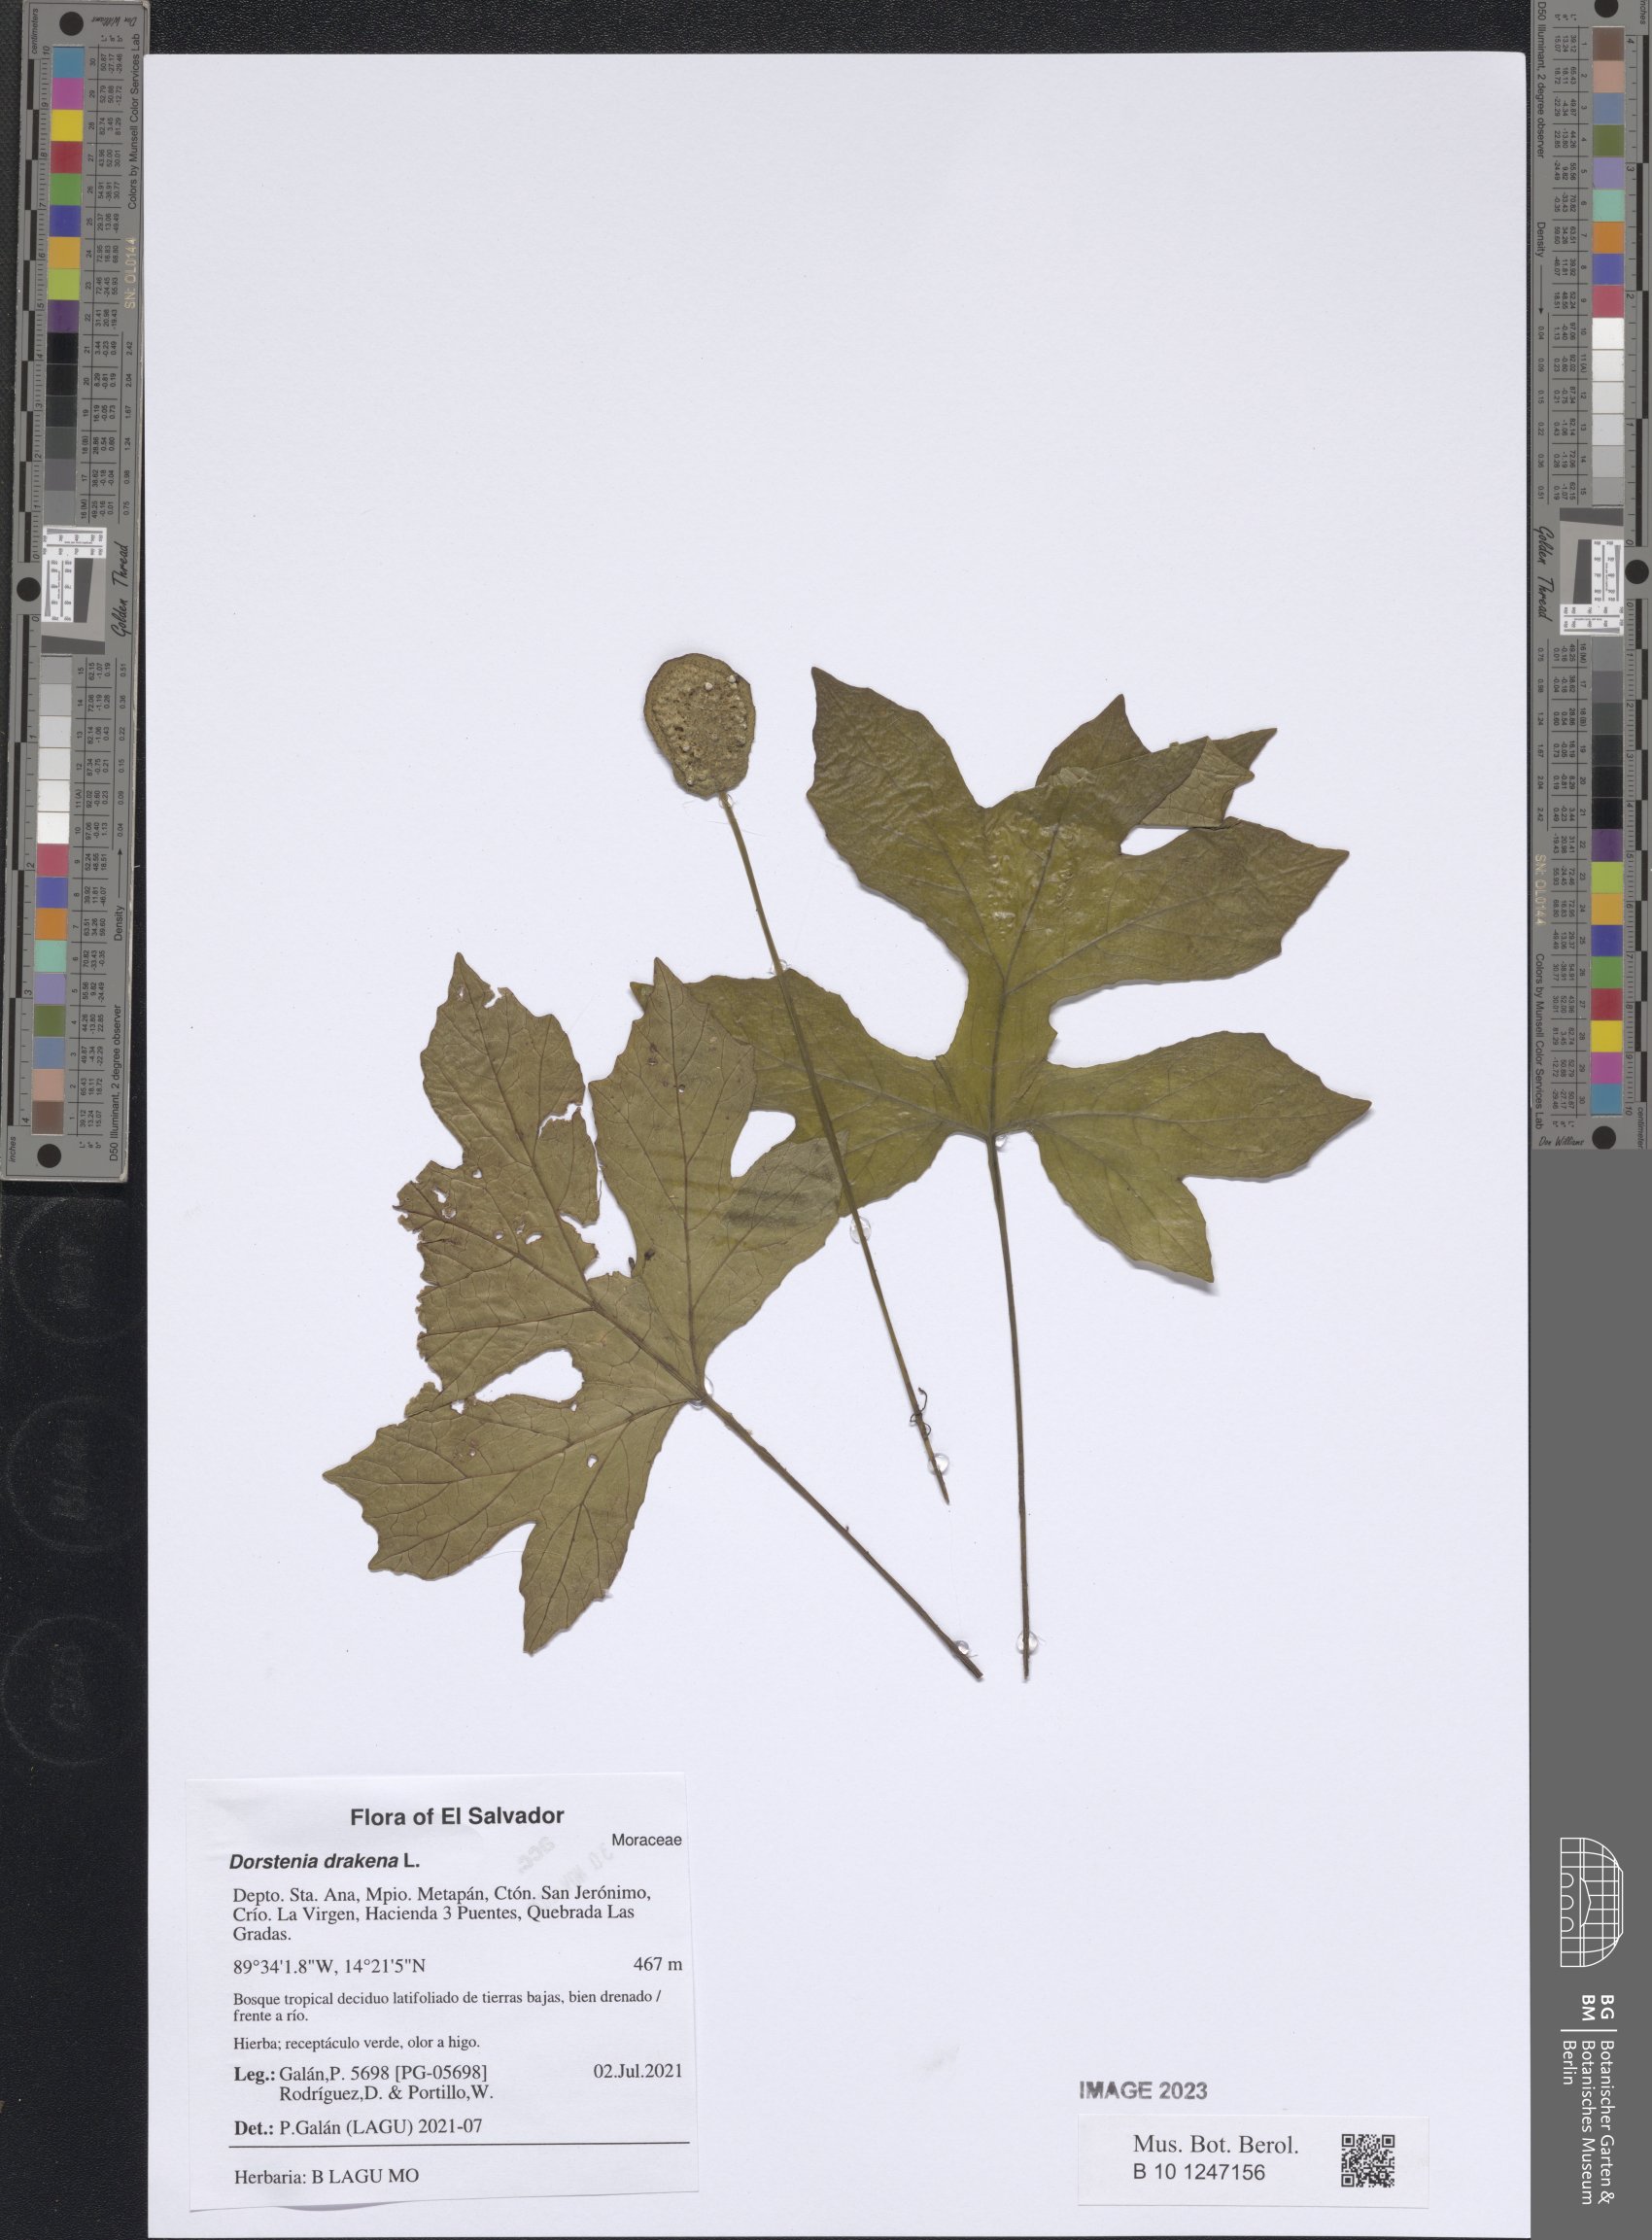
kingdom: Plantae
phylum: Tracheophyta
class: Magnoliopsida
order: Rosales
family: Moraceae
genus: Dorstenia
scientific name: Dorstenia drakena
